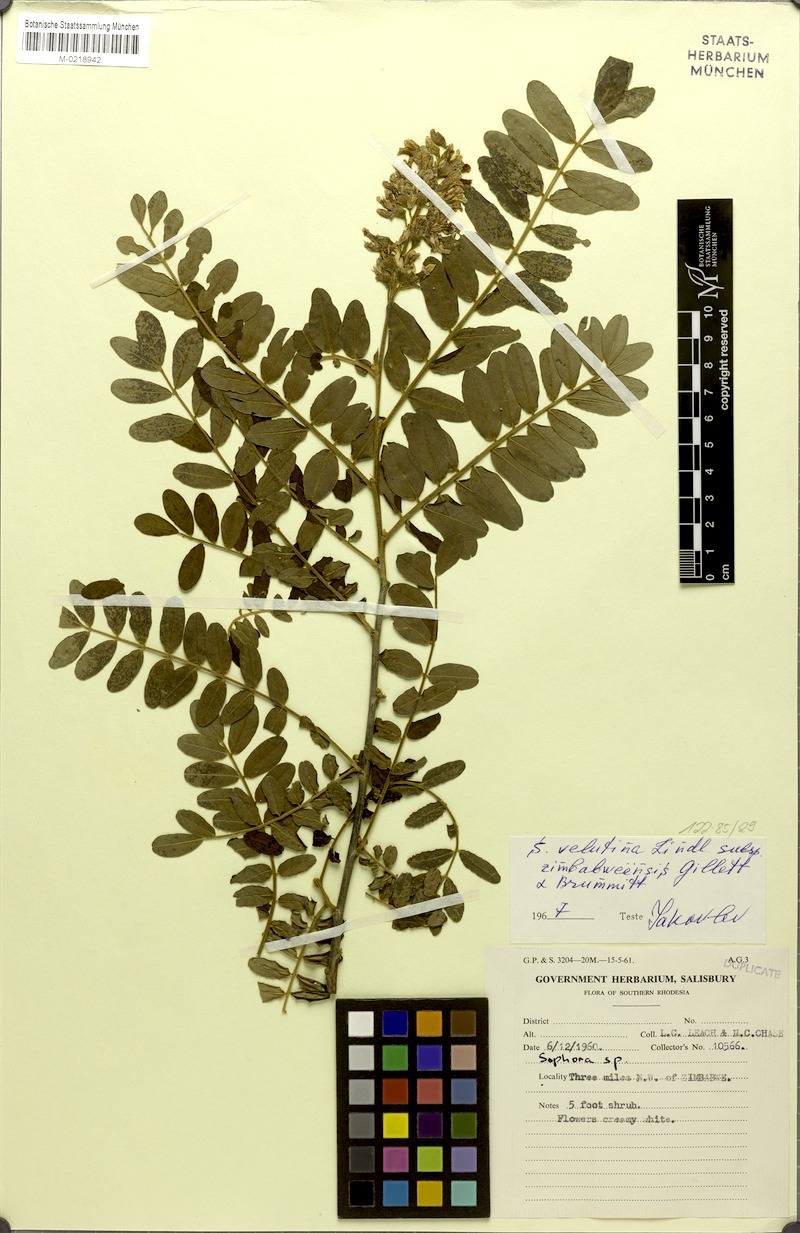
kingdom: Plantae
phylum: Tracheophyta
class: Magnoliopsida
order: Fabales
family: Fabaceae
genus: Sophora
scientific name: Sophora velutina
